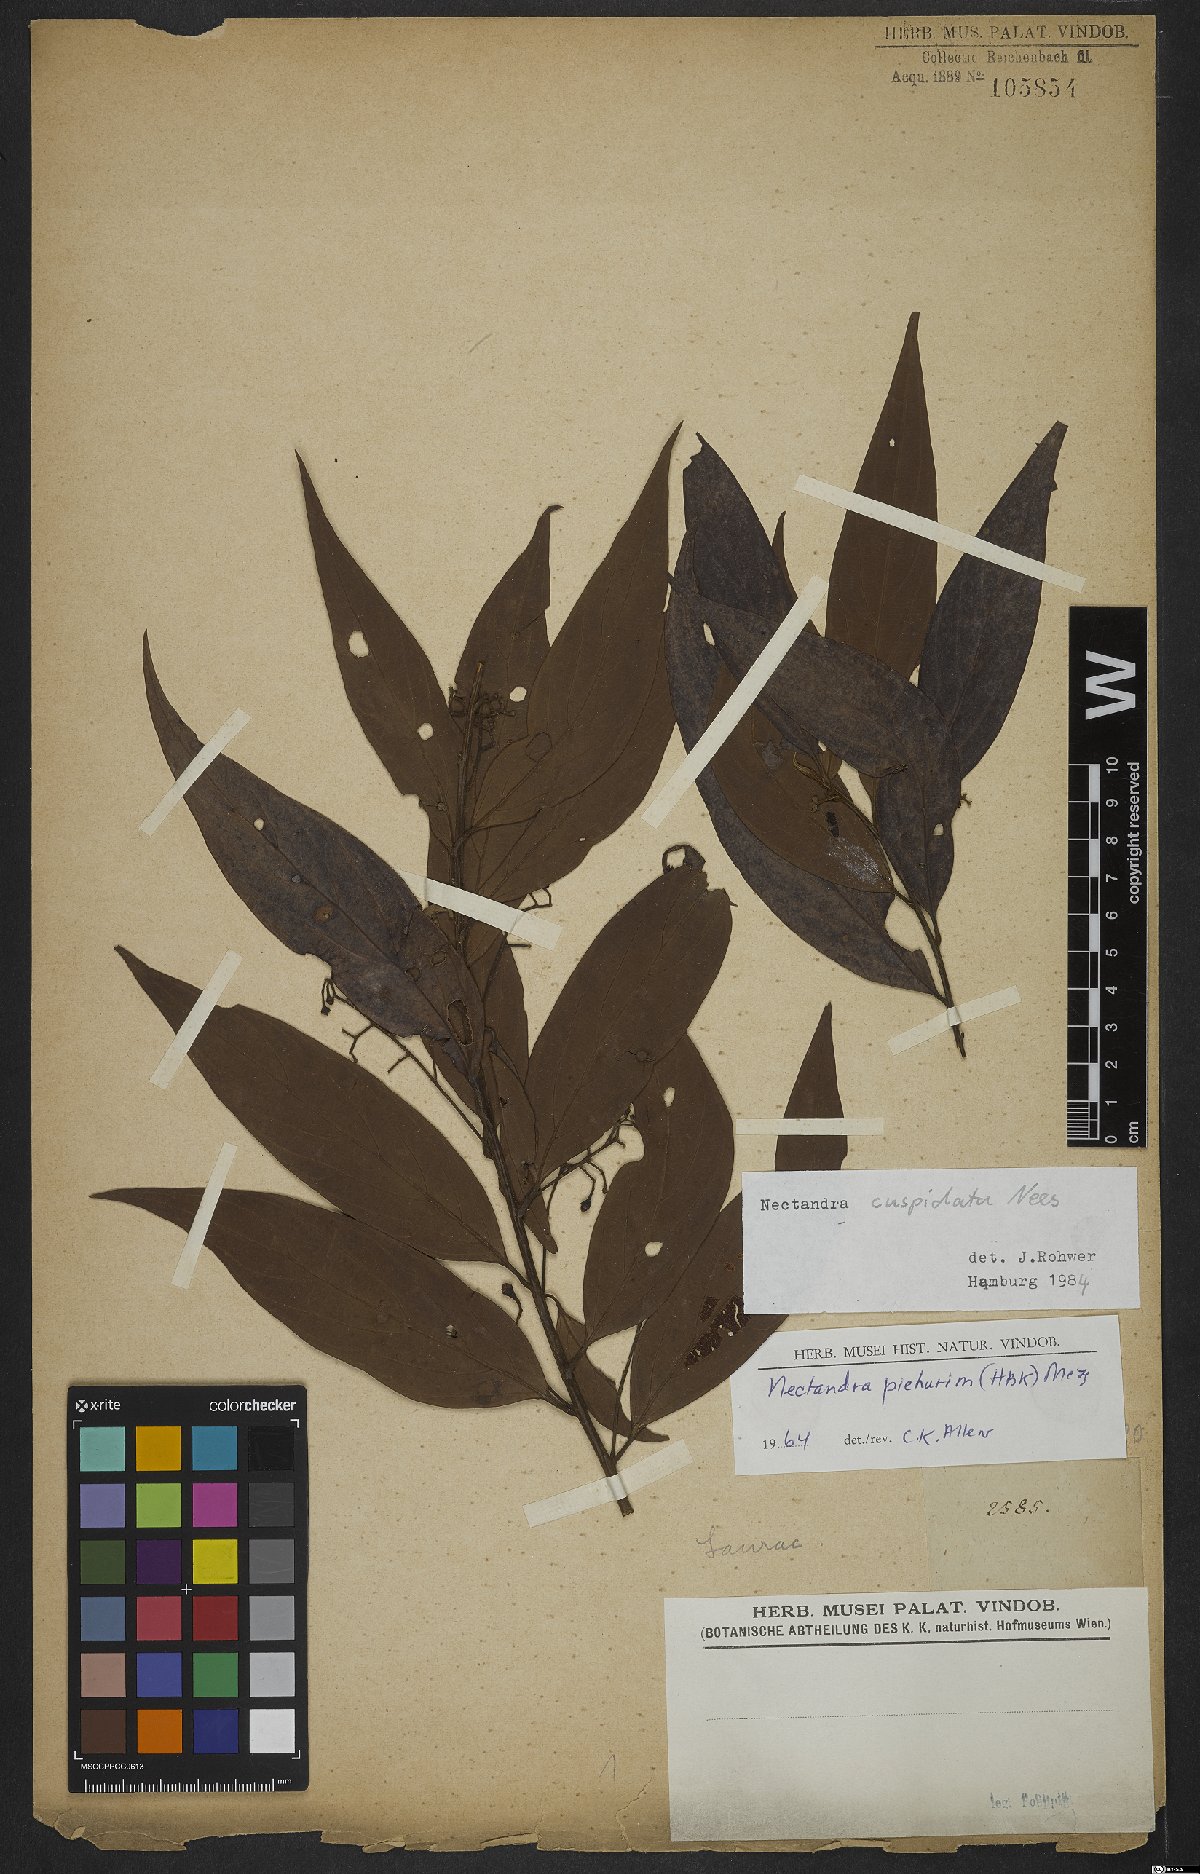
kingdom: Plantae
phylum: Tracheophyta
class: Magnoliopsida
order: Laurales
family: Lauraceae
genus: Nectandra
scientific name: Nectandra cuspidata
